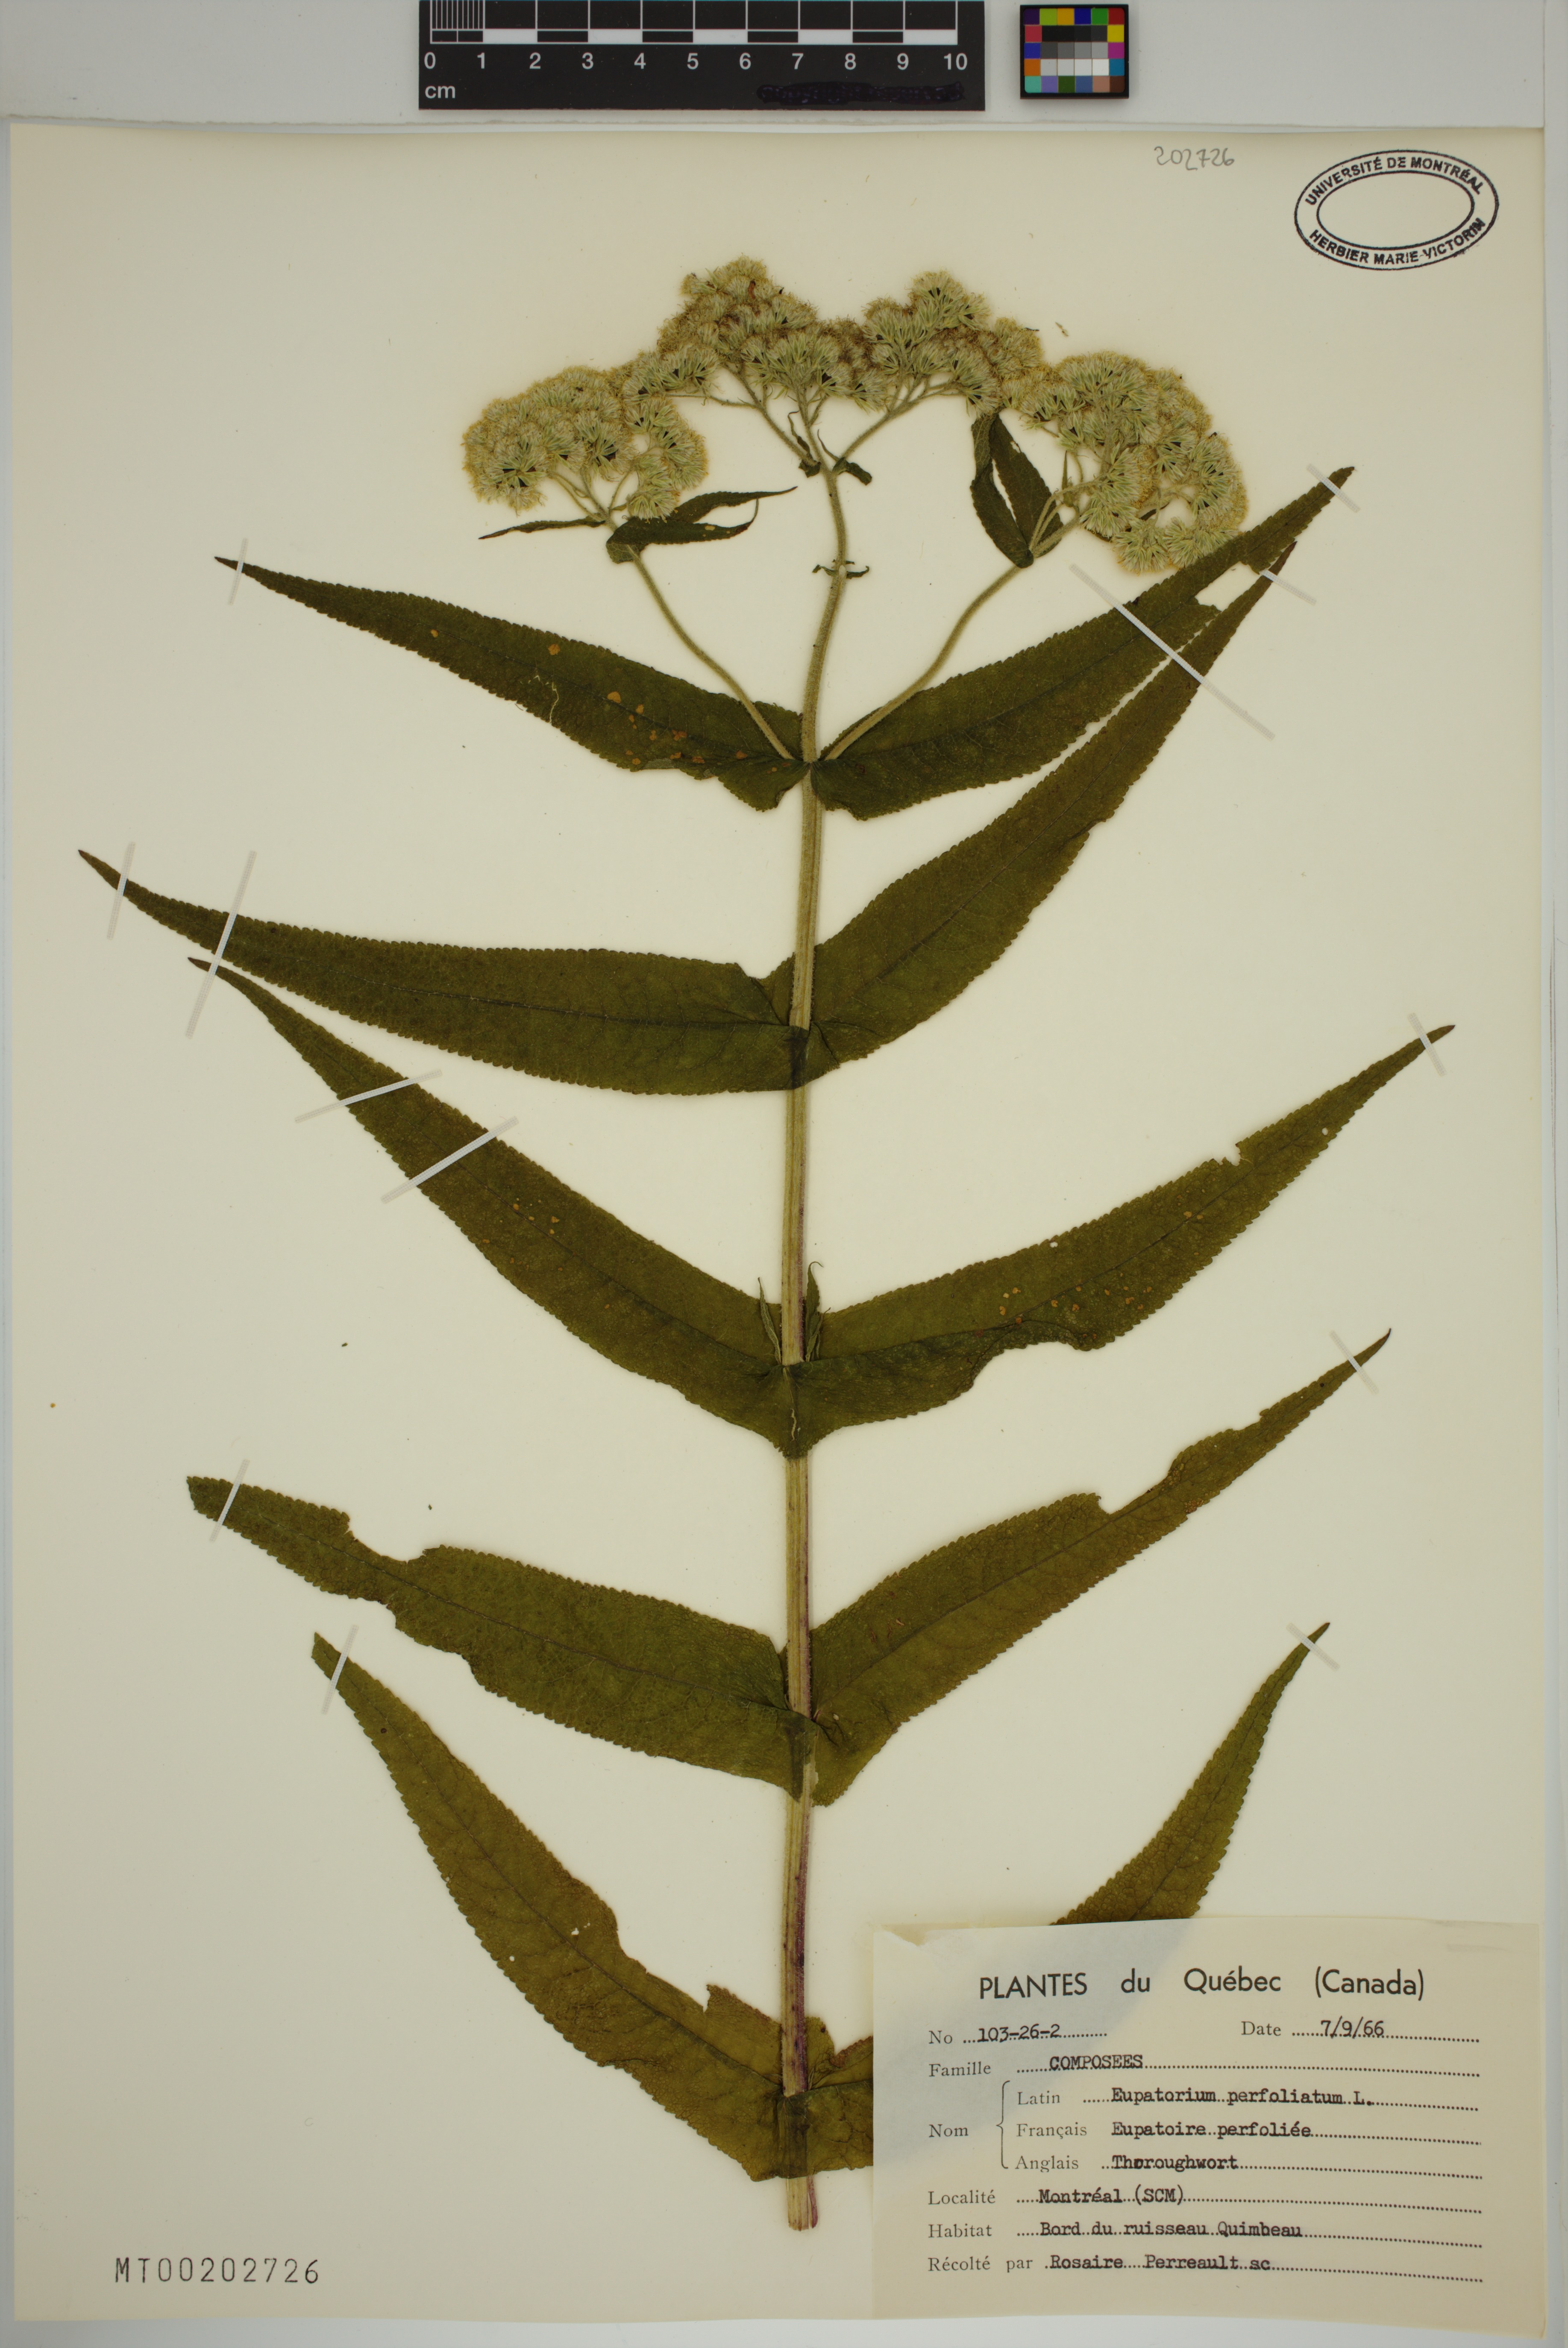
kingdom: Plantae
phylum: Tracheophyta
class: Magnoliopsida
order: Asterales
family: Asteraceae
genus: Eupatorium
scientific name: Eupatorium perfoliatum
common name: Boneset
